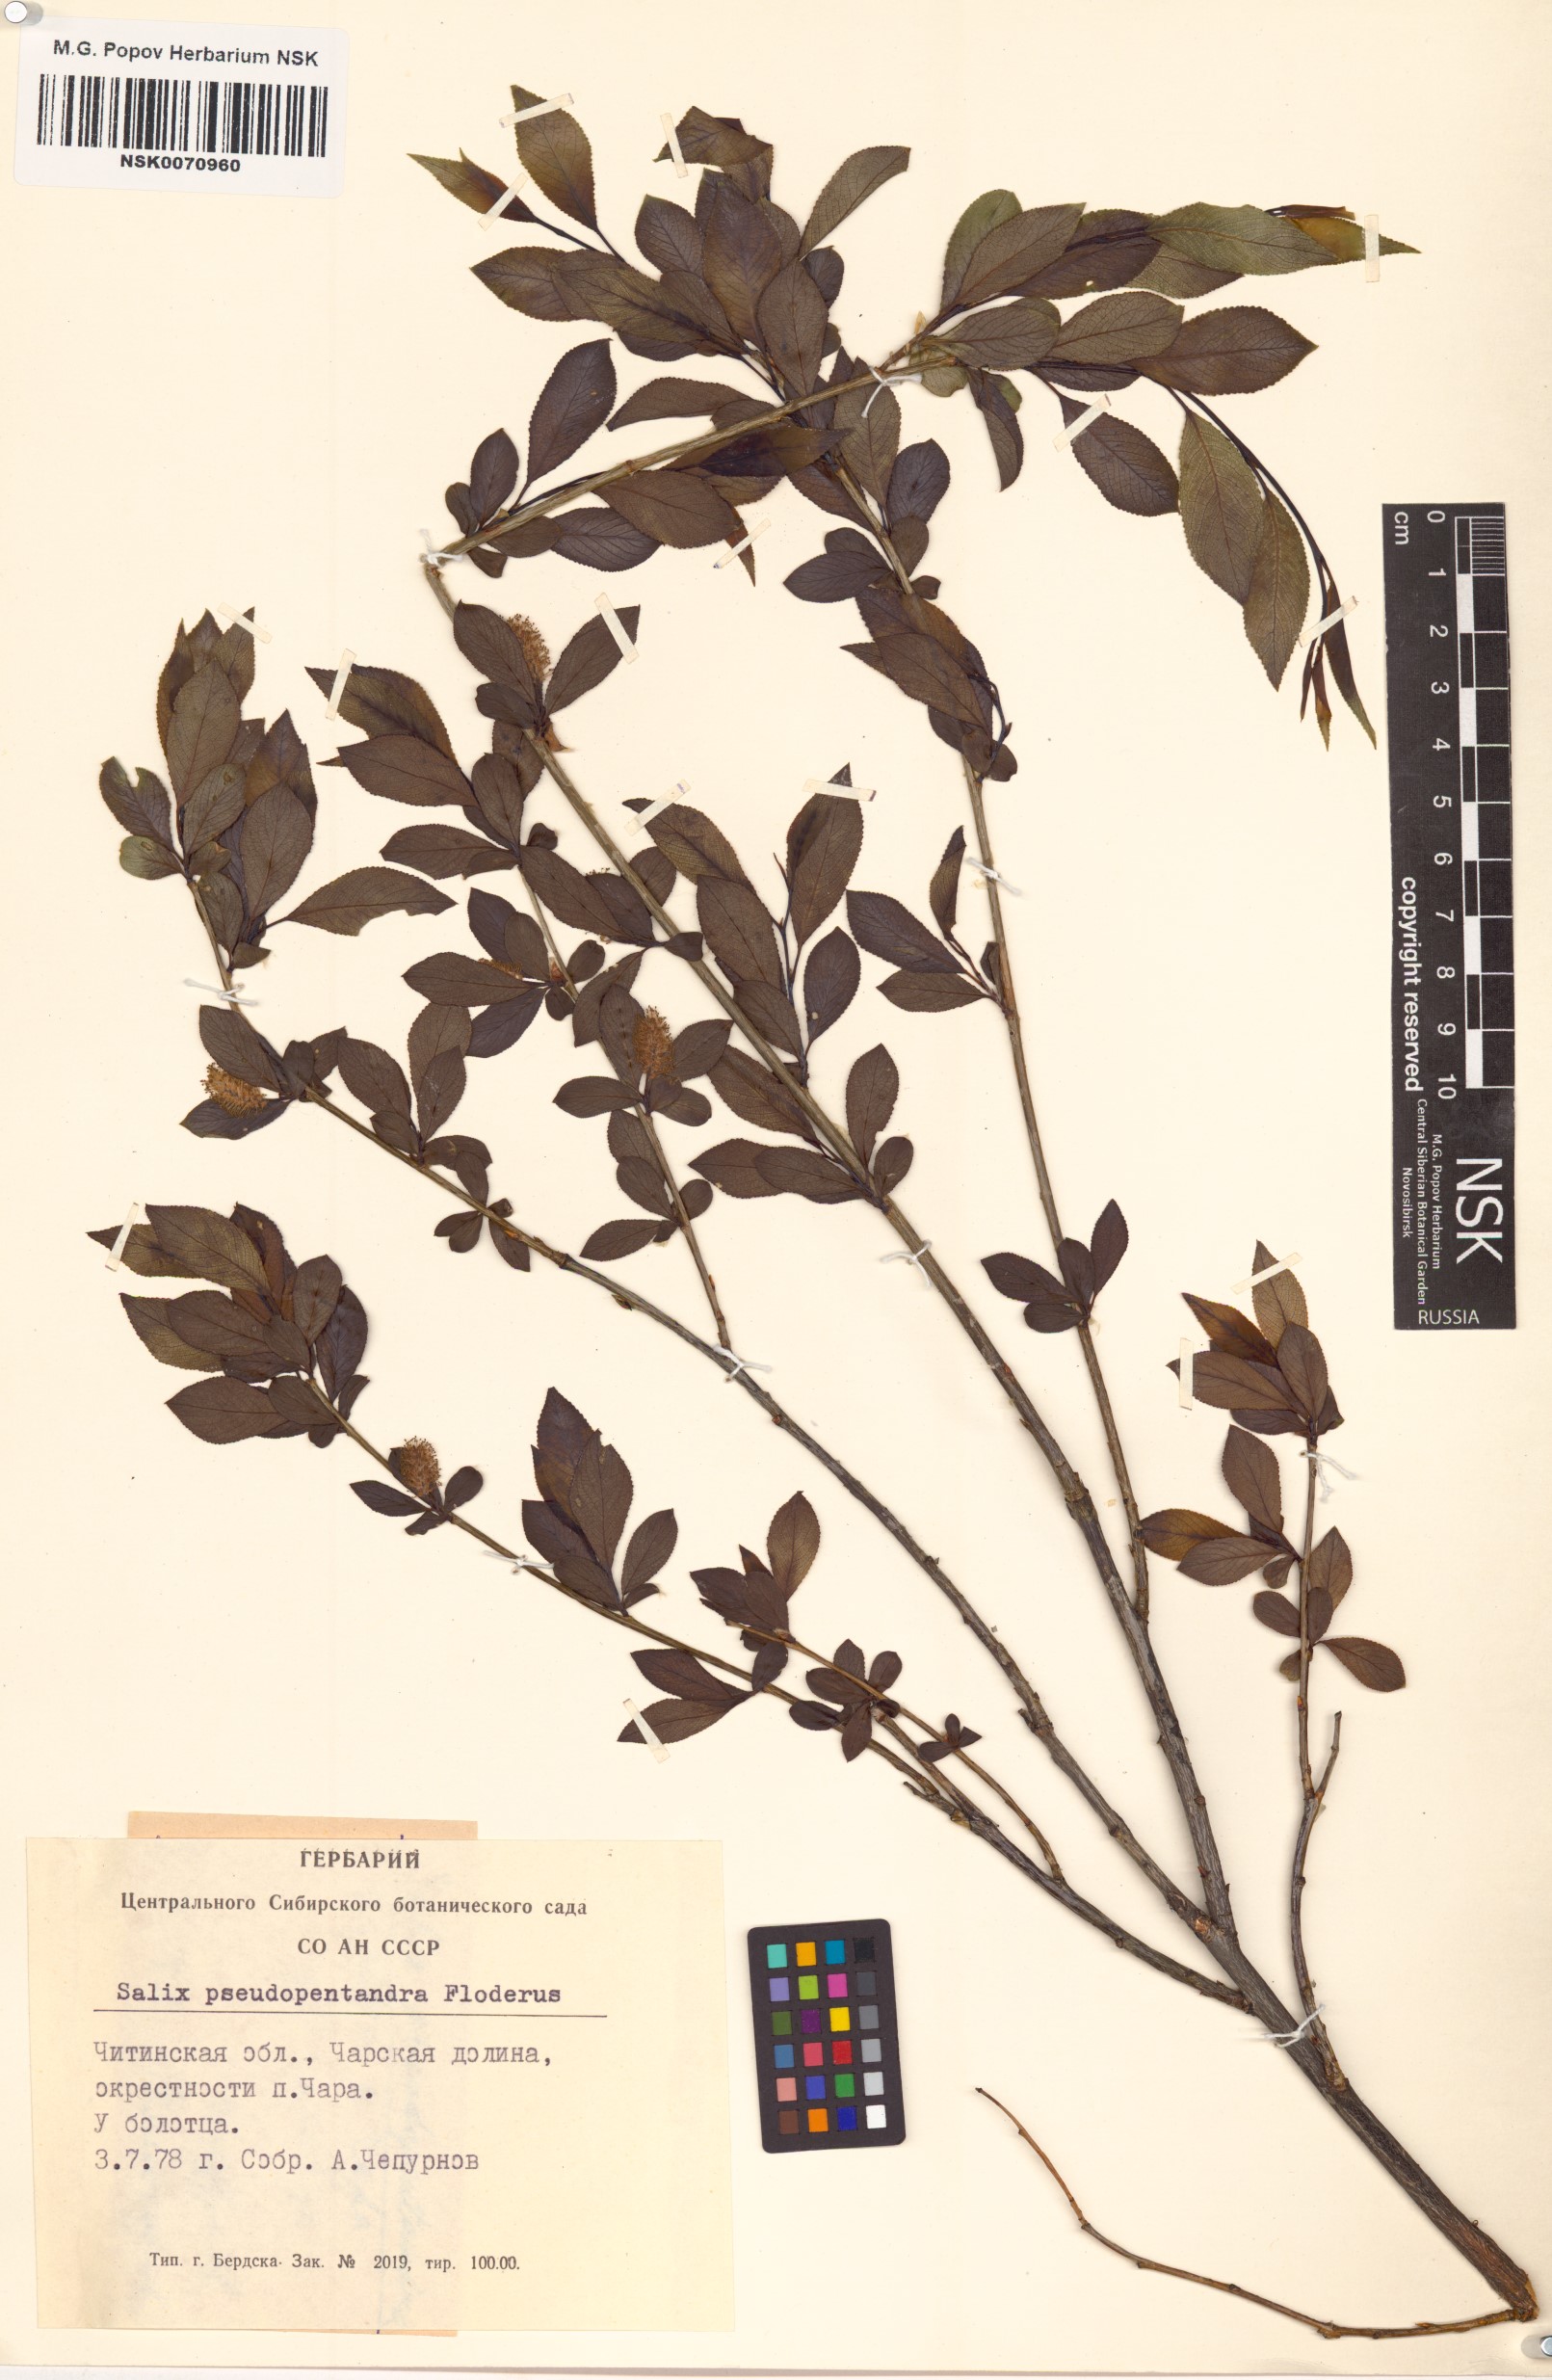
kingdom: Plantae
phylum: Tracheophyta
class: Magnoliopsida
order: Malpighiales
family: Salicaceae
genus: Salix
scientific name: Salix pseudopentandra
